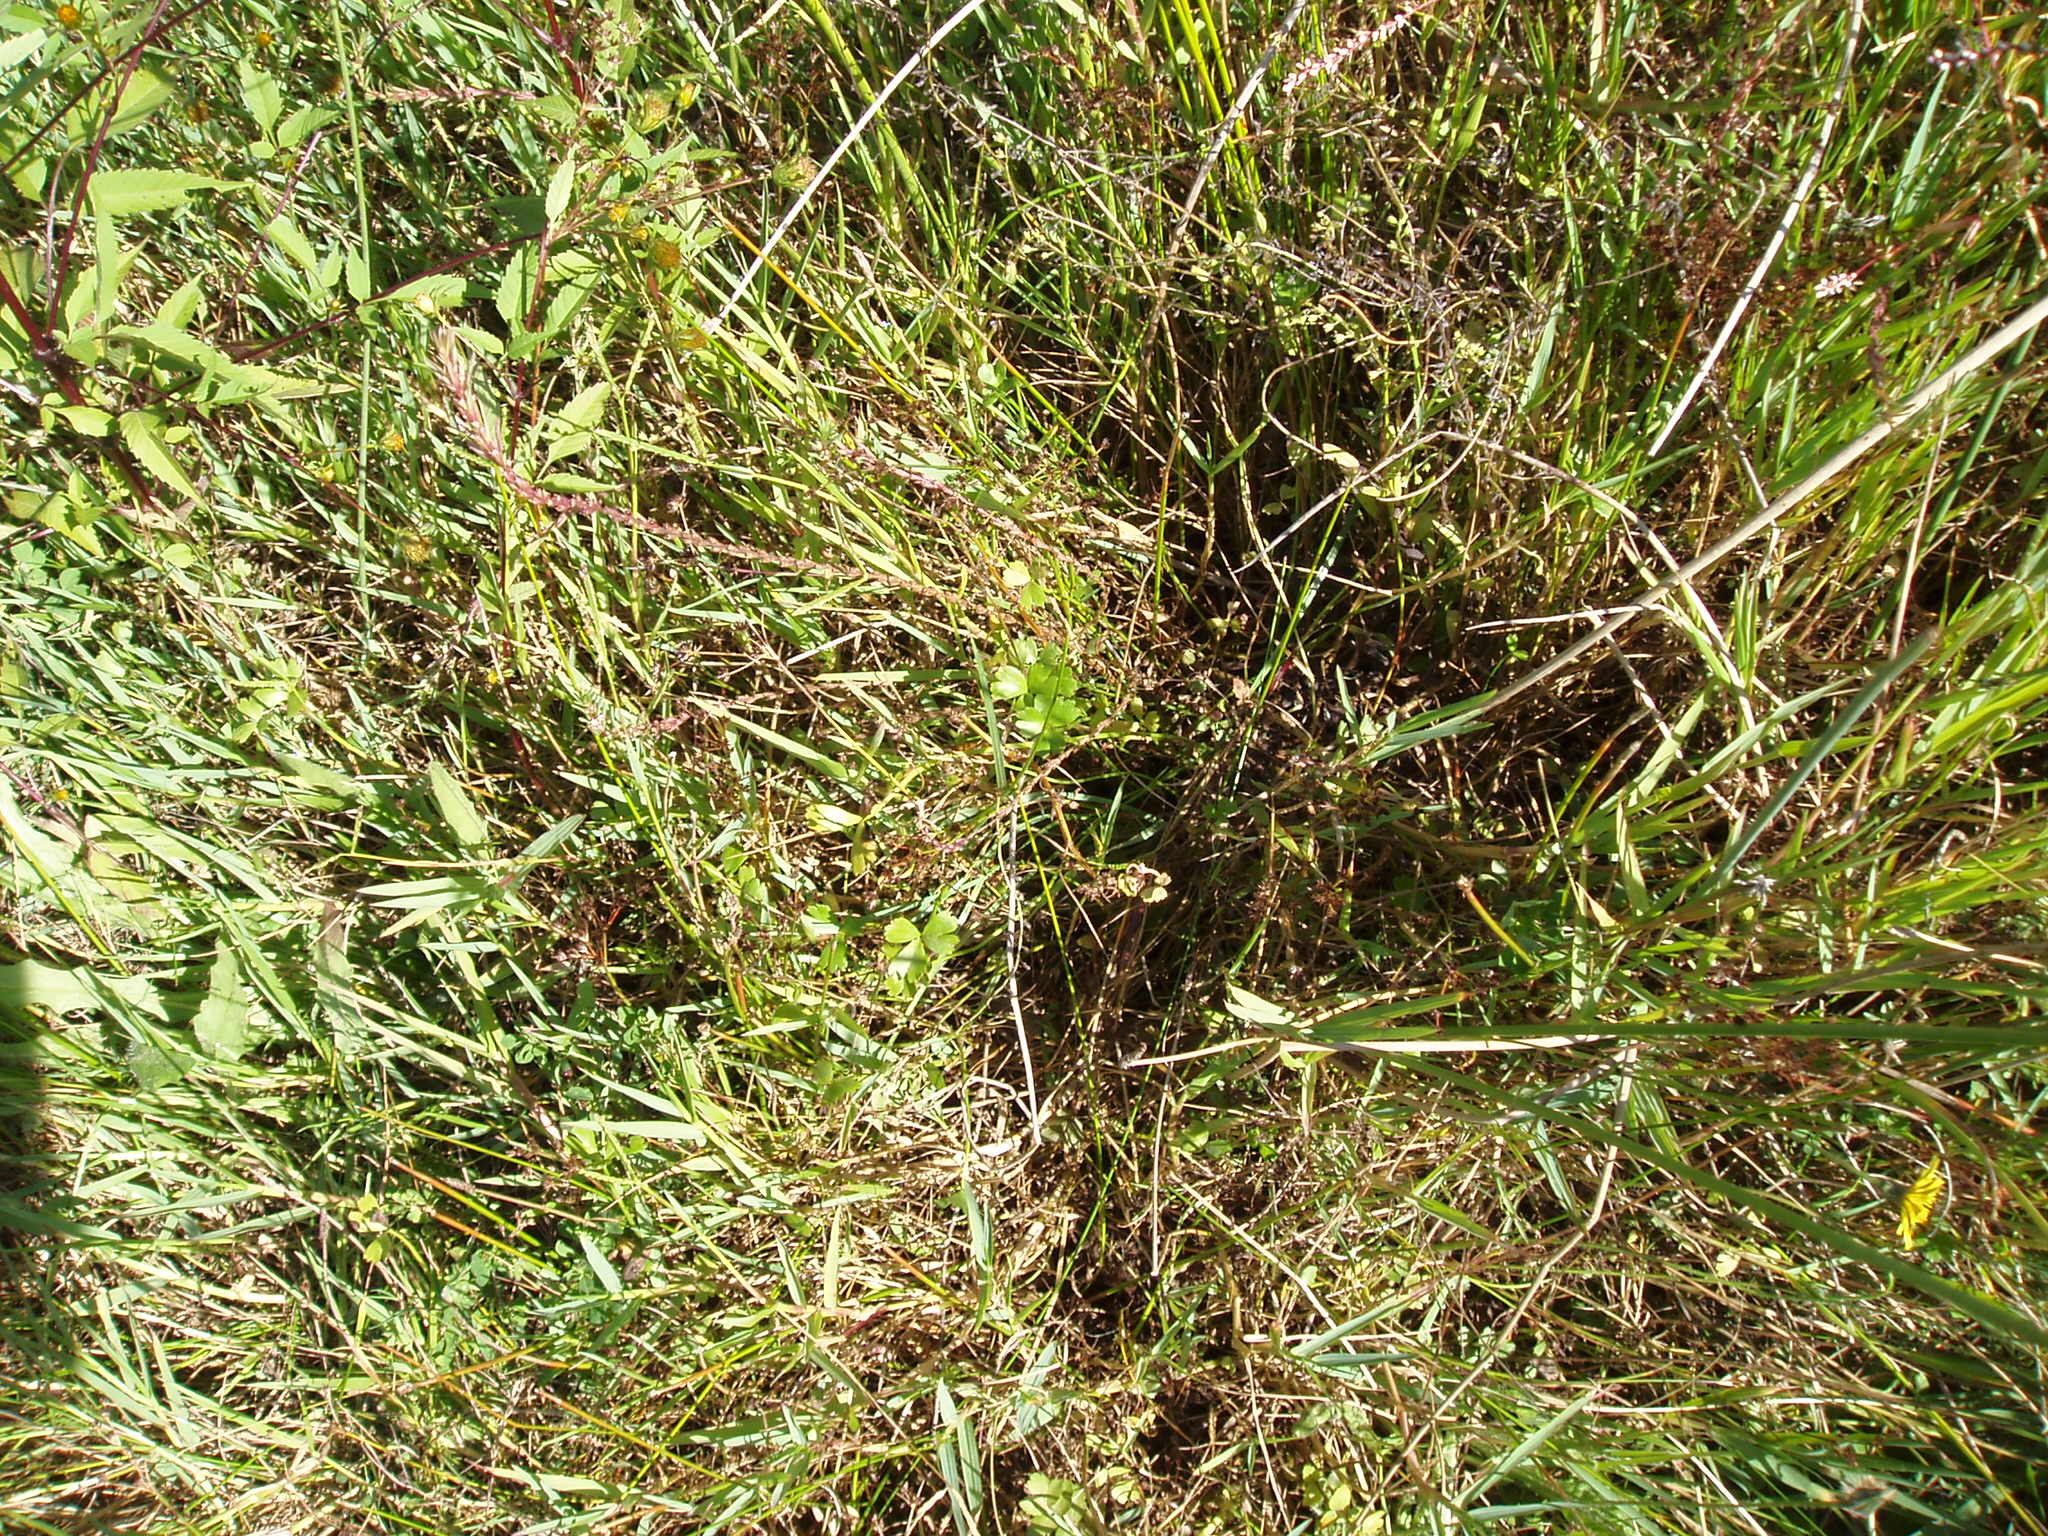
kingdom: Plantae
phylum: Tracheophyta
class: Magnoliopsida
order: Ranunculales
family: Ranunculaceae
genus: Ranunculus
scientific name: Ranunculus macropus
